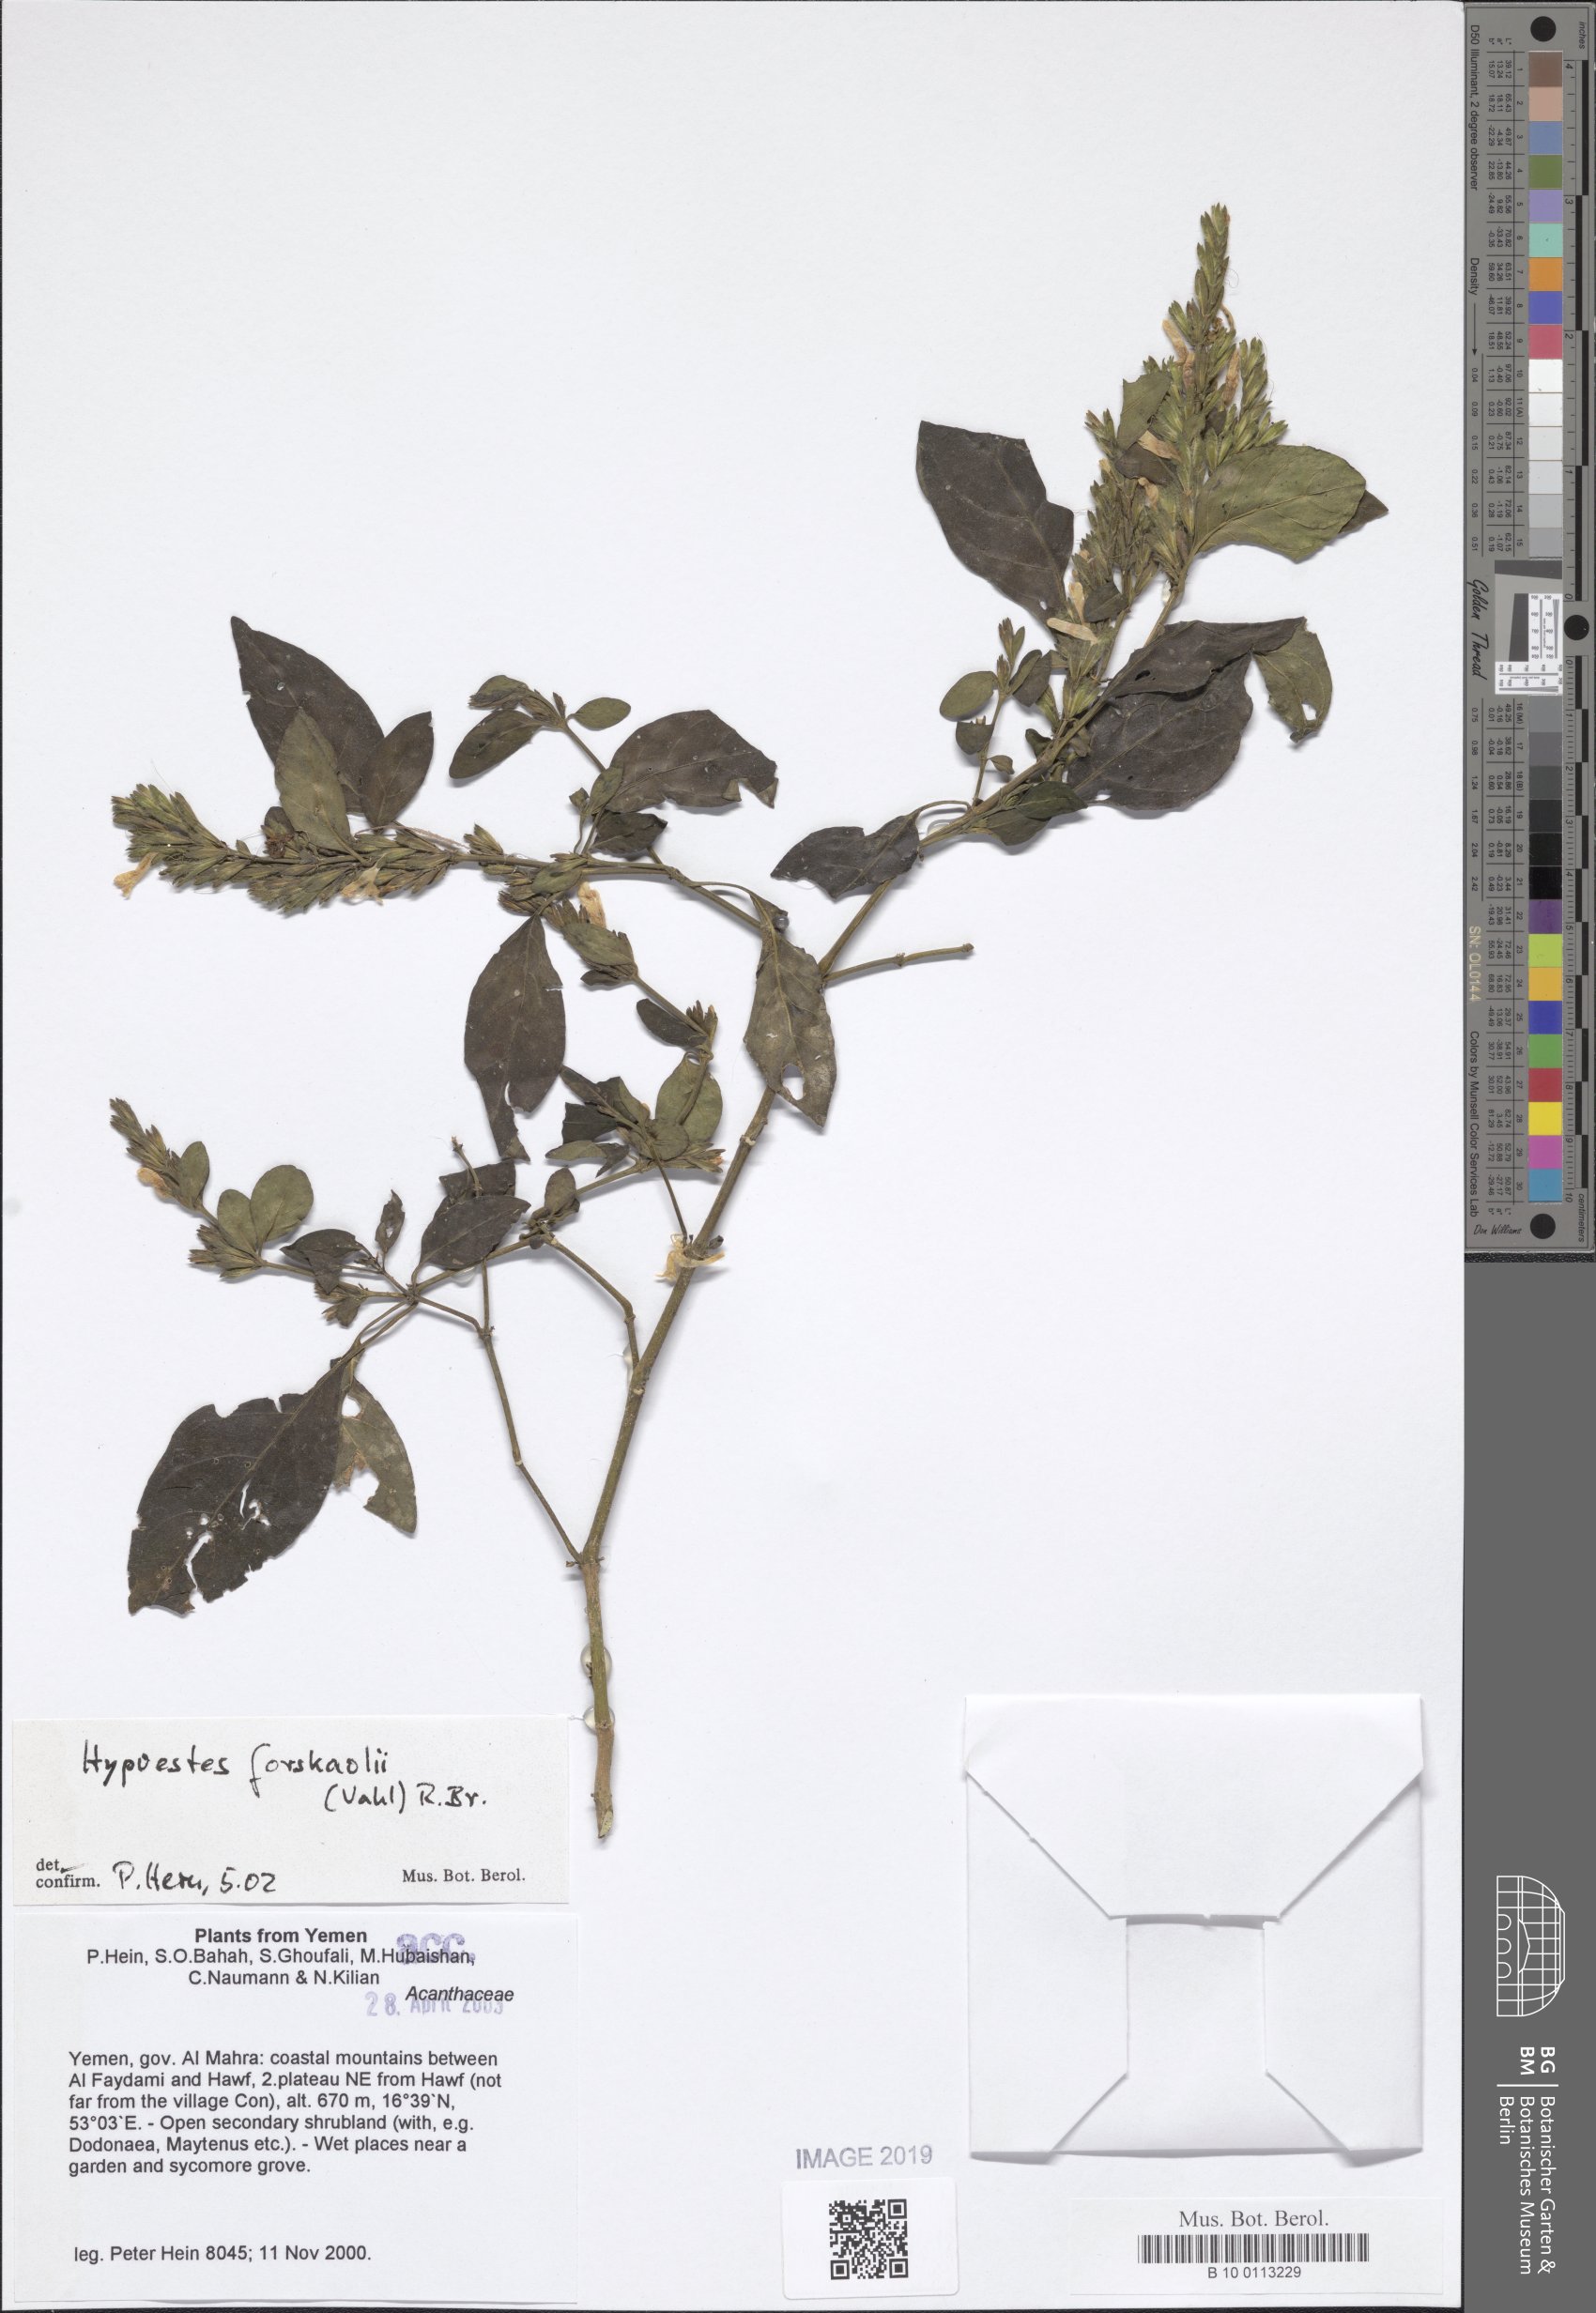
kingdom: Plantae
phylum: Tracheophyta
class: Magnoliopsida
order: Lamiales
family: Acanthaceae
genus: Hypoestes
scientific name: Hypoestes forskaolii
